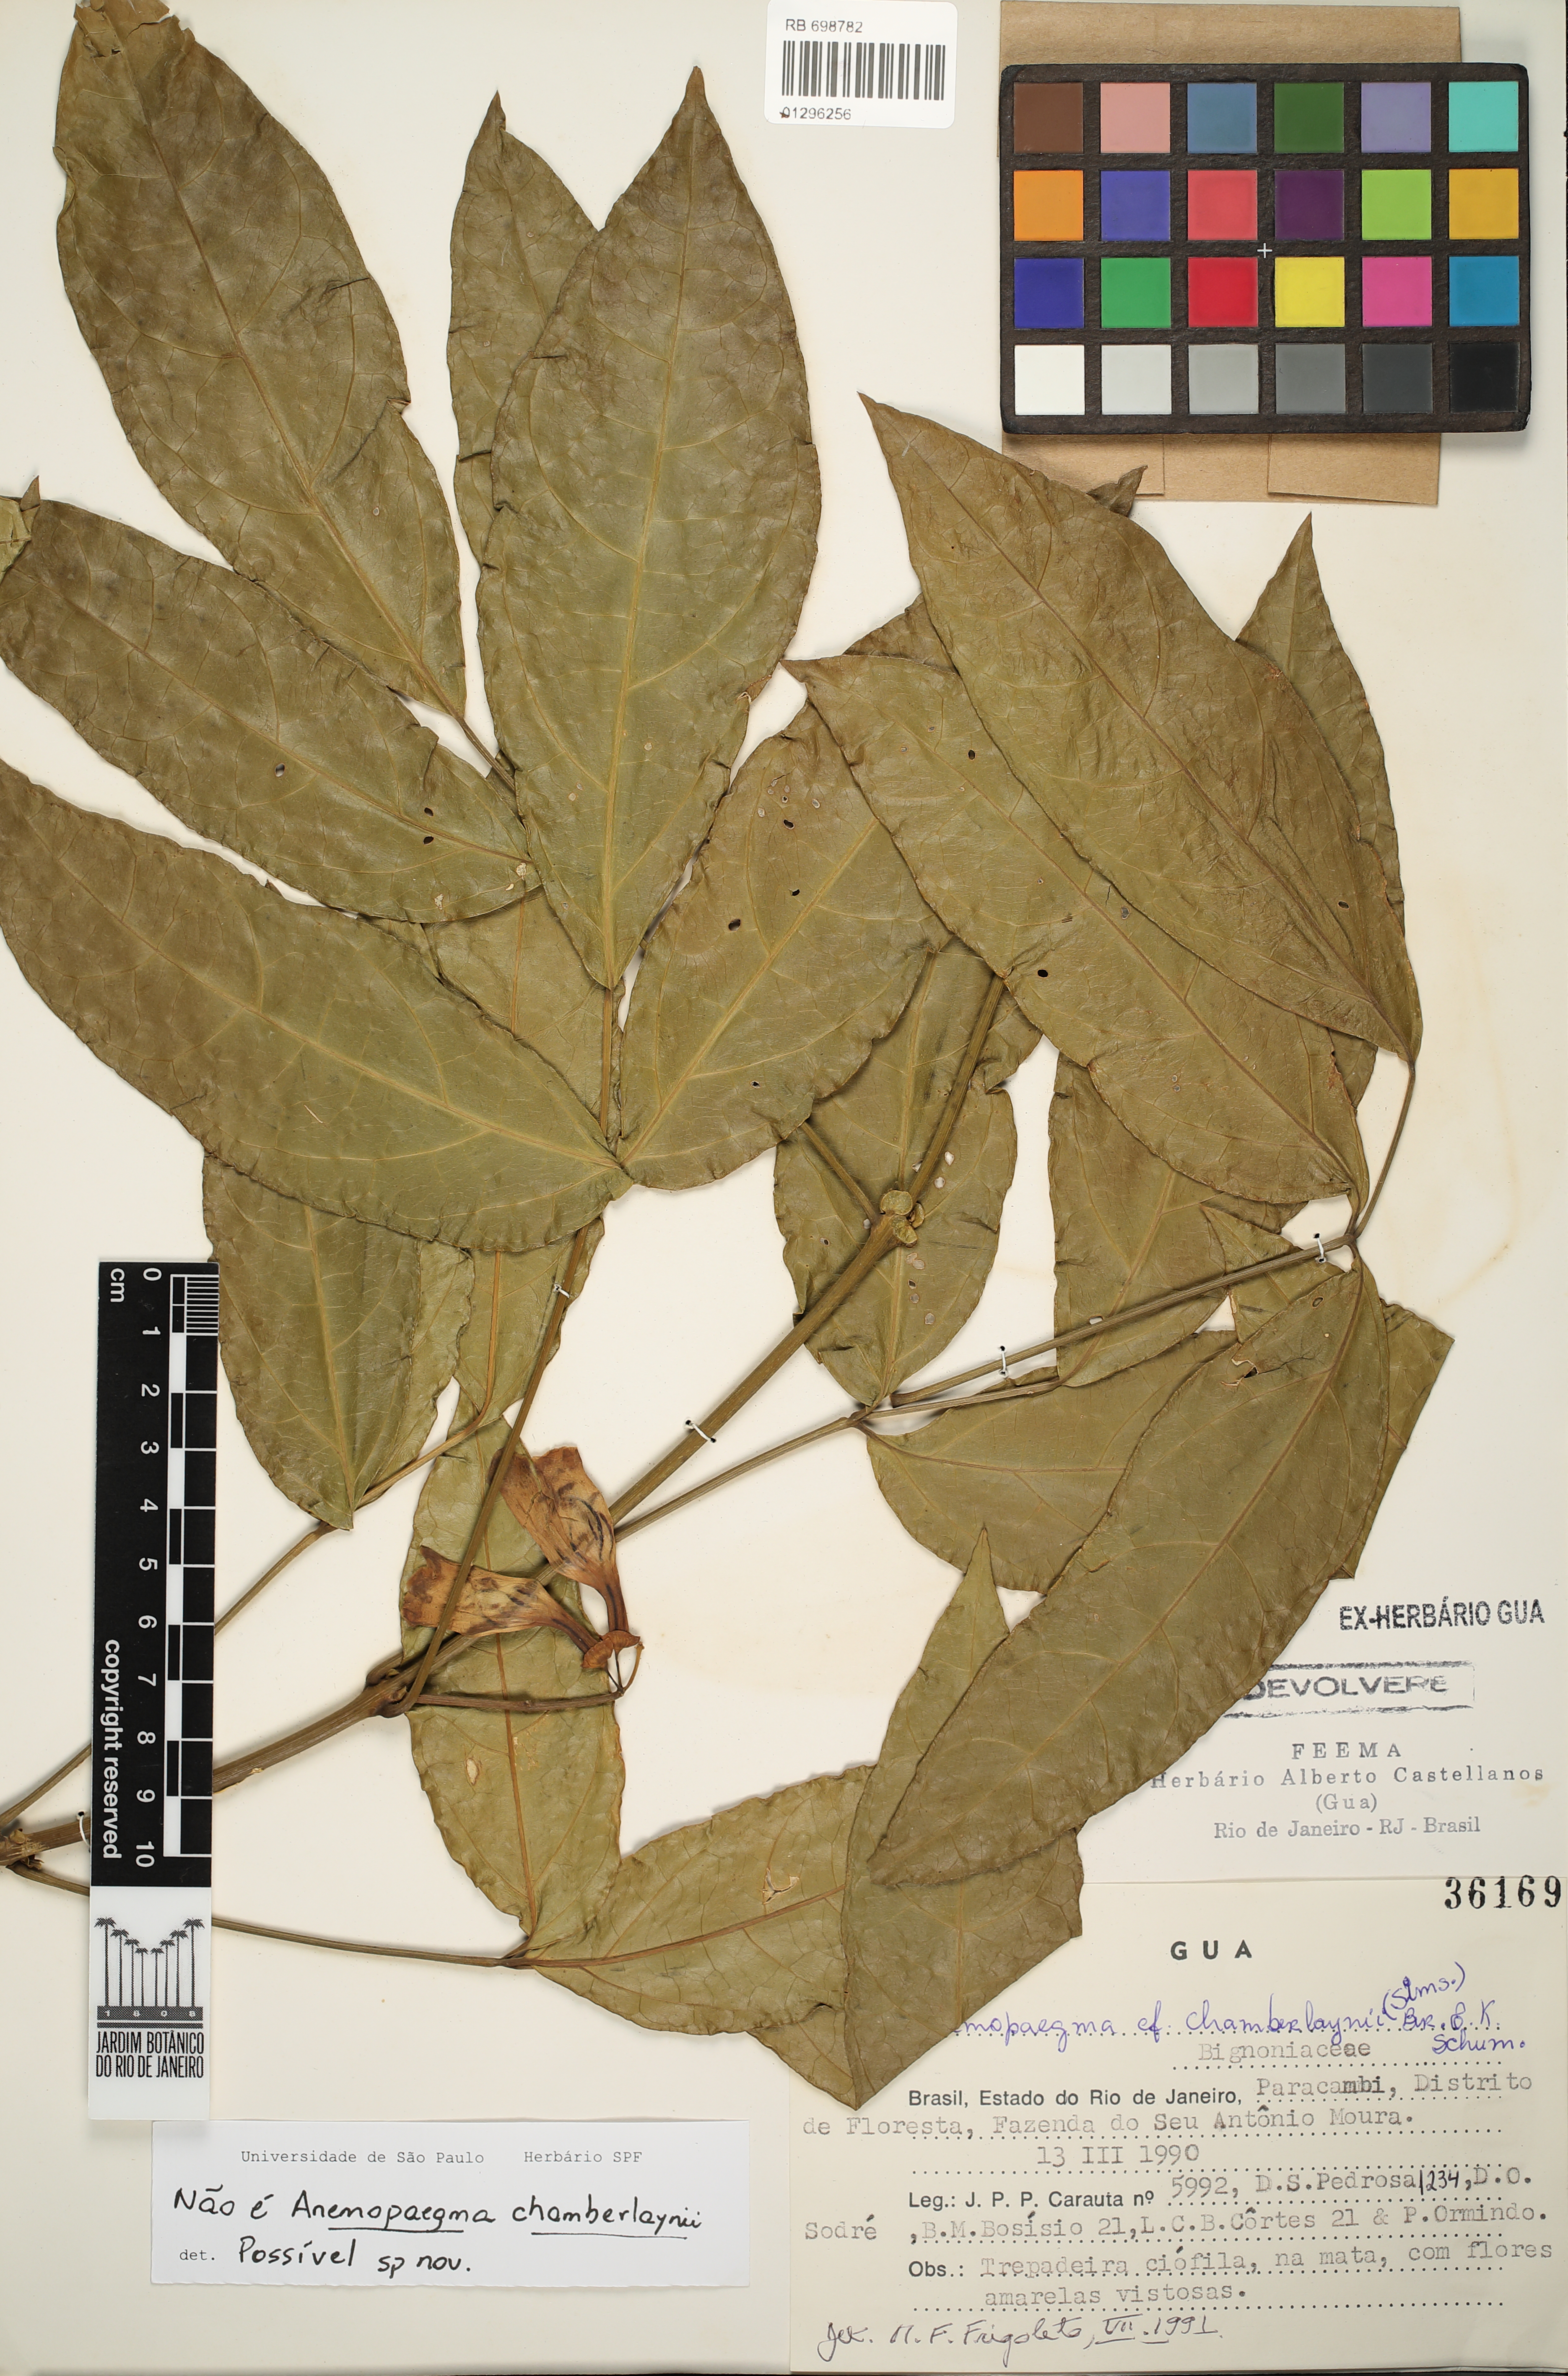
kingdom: Plantae
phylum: Tracheophyta
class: Magnoliopsida
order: Lamiales
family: Bignoniaceae
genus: Anemopaegma
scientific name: Anemopaegma chamberlaynii
